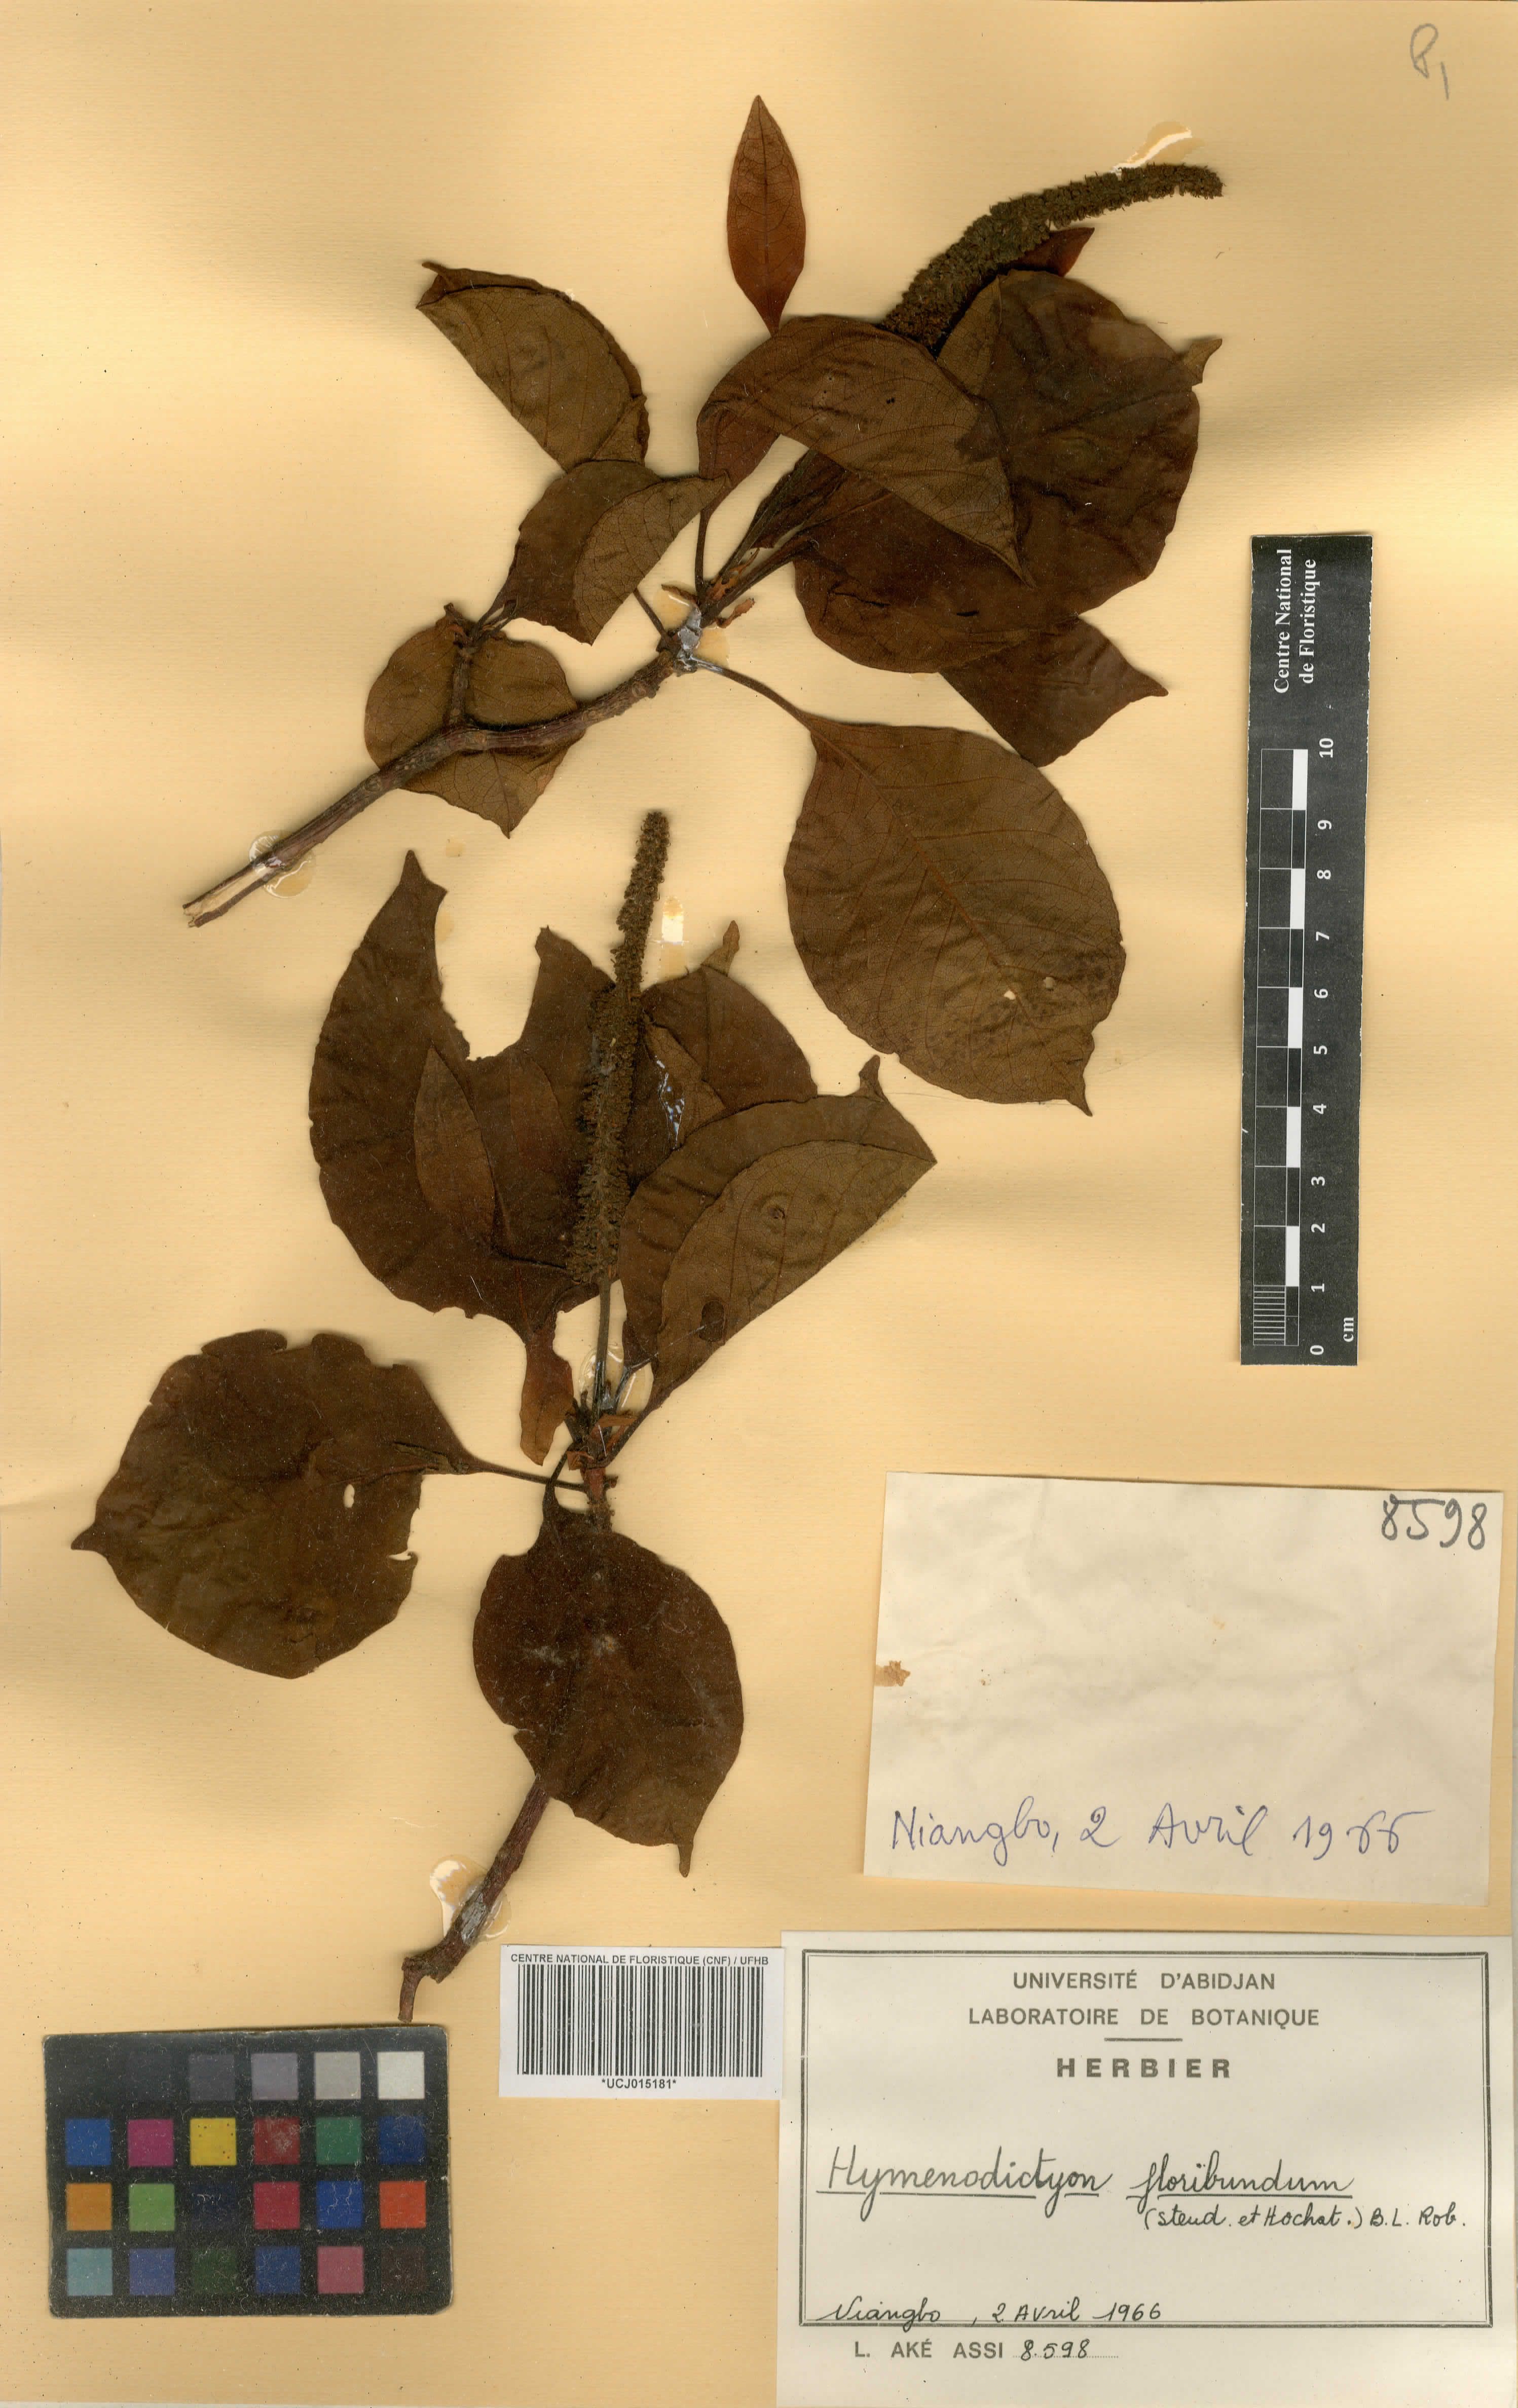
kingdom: Plantae
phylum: Tracheophyta
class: Magnoliopsida
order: Gentianales
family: Rubiaceae
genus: Hymenodictyon
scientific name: Hymenodictyon floribundum
